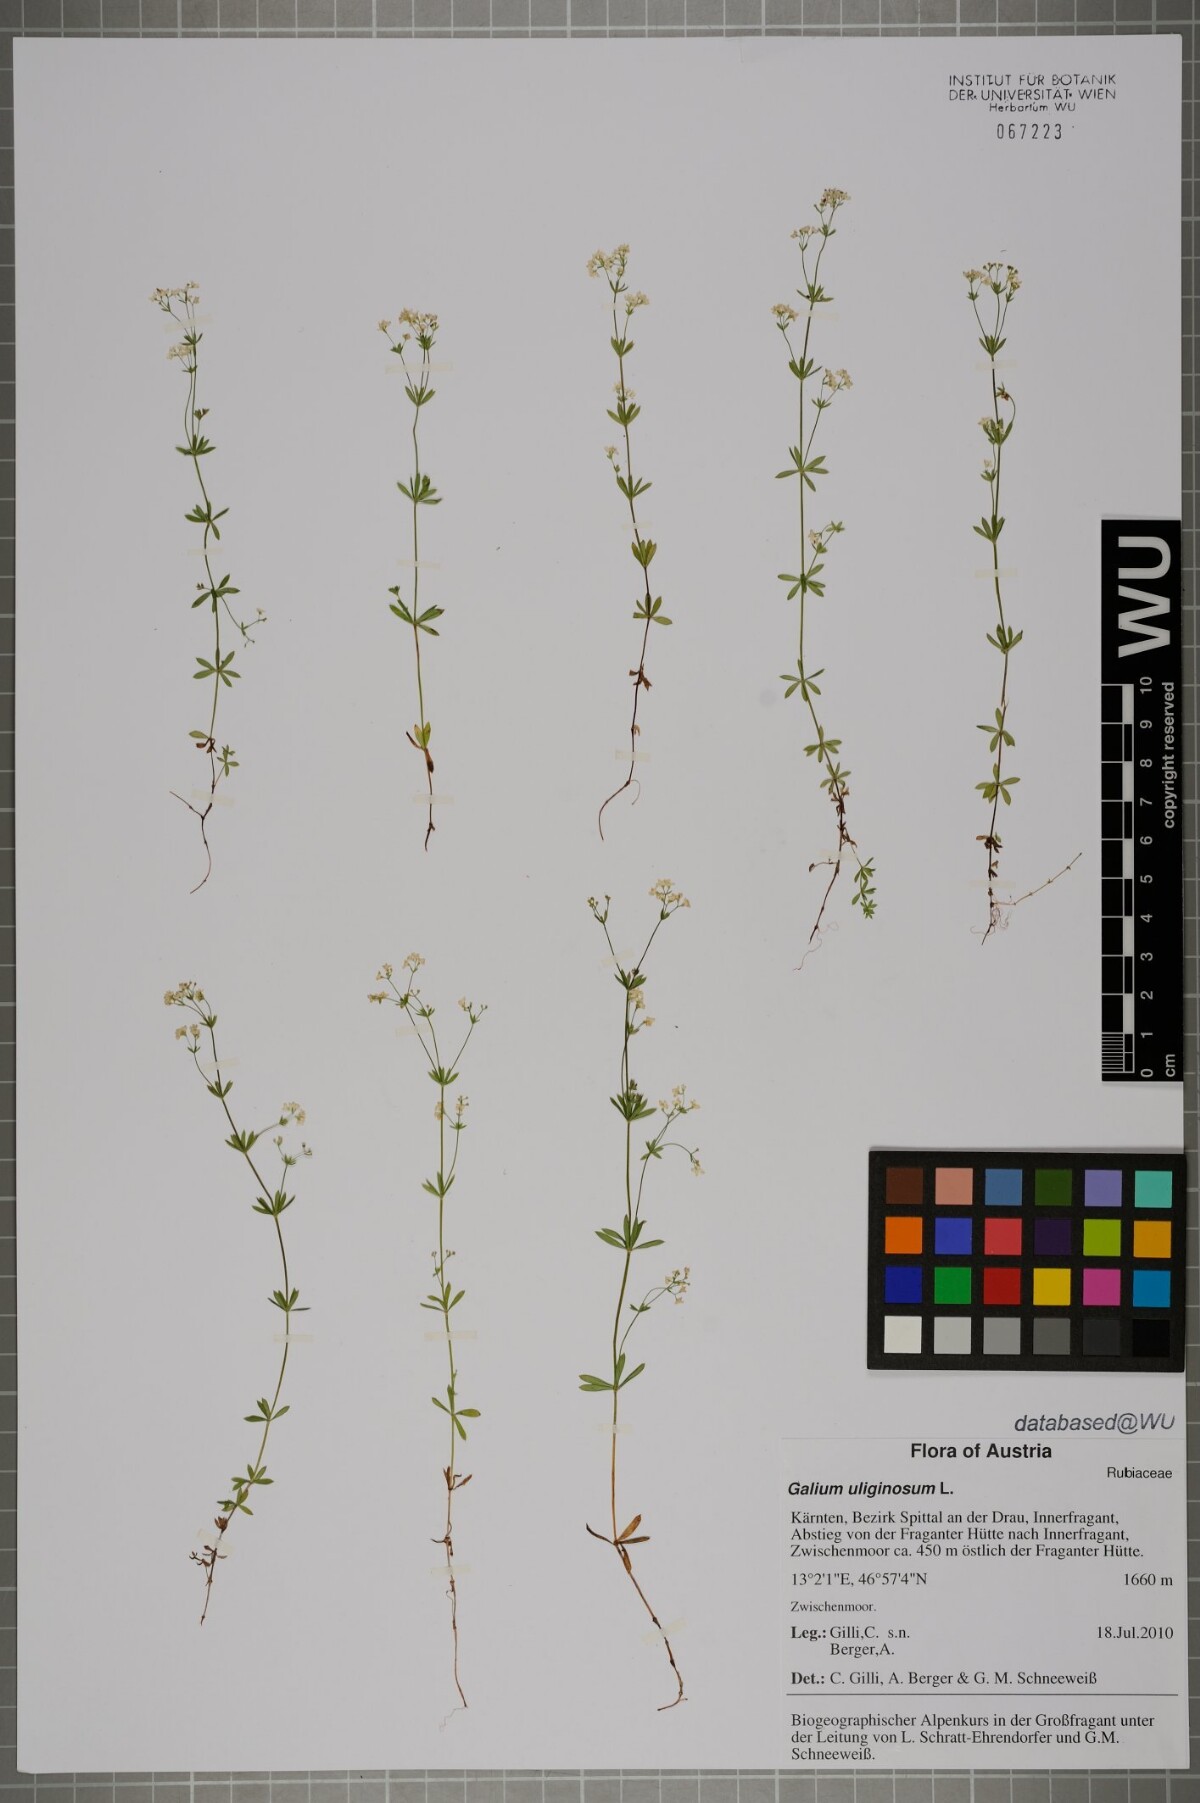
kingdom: Plantae
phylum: Tracheophyta
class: Magnoliopsida
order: Gentianales
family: Rubiaceae
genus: Galium
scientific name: Galium uliginosum
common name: Fen bedstraw
